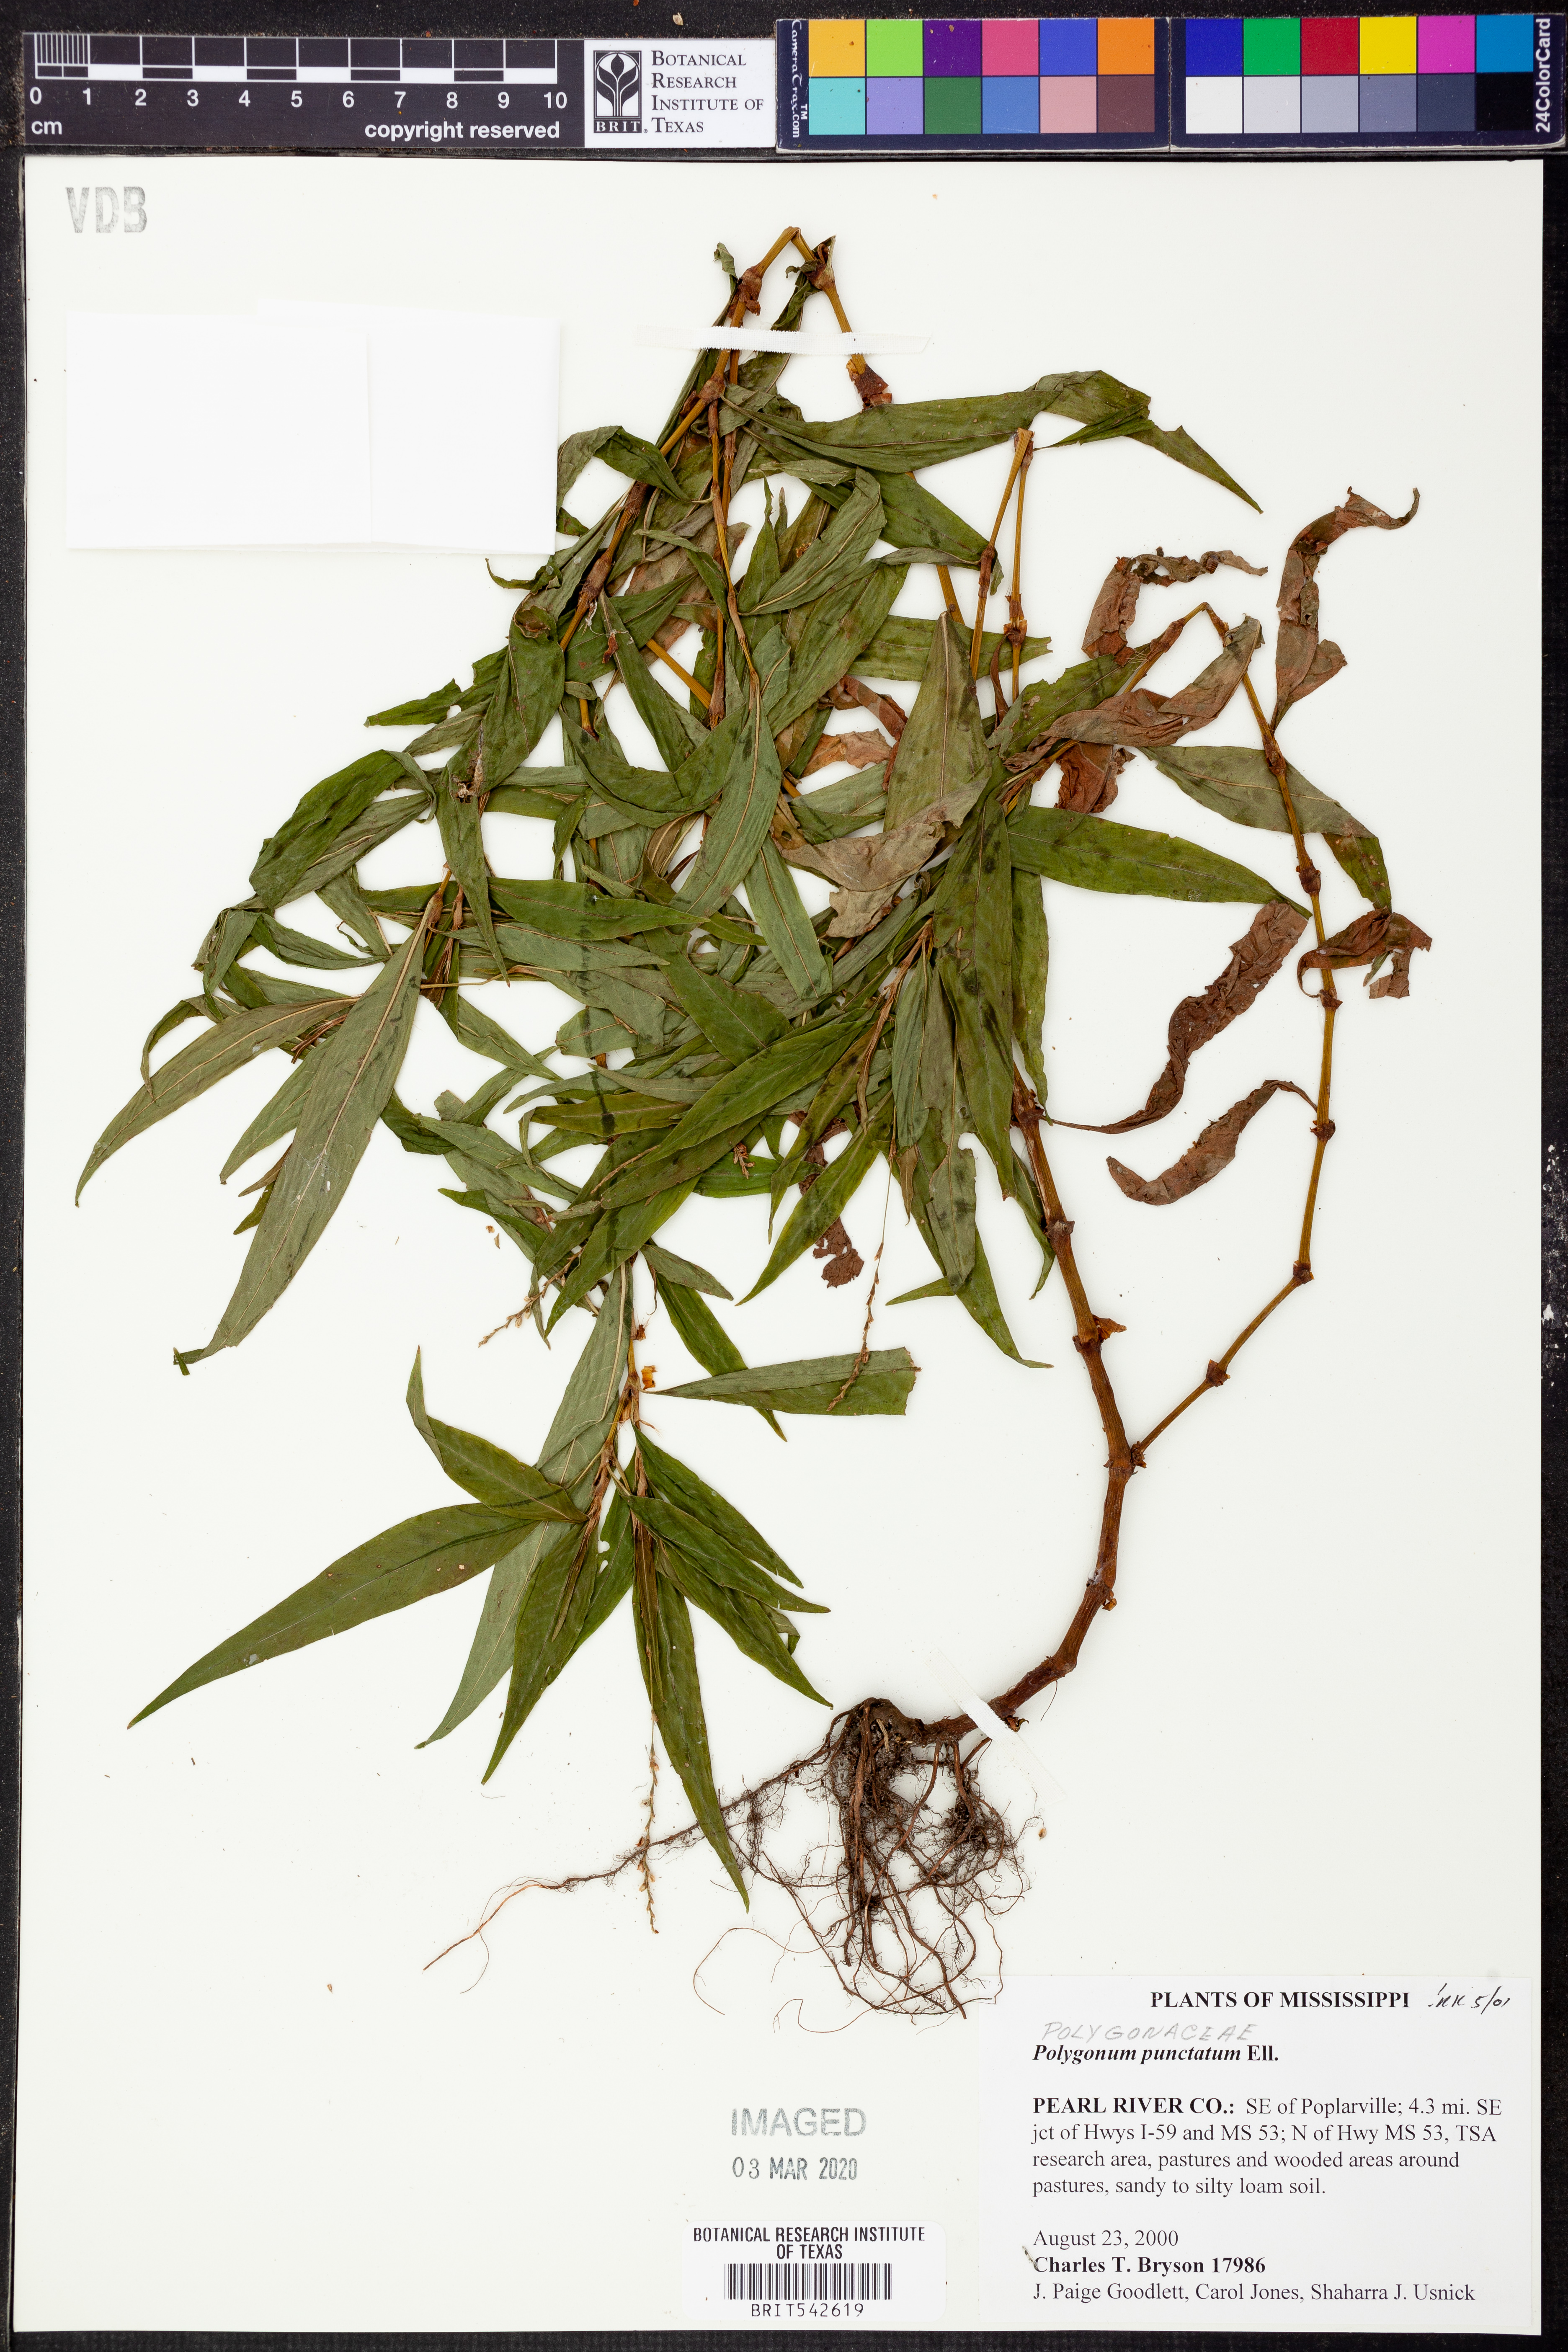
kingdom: Plantae
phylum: Tracheophyta
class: Magnoliopsida
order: Caryophyllales
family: Polygonaceae
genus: Persicaria
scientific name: Persicaria punctata
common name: Dotted smartweed
